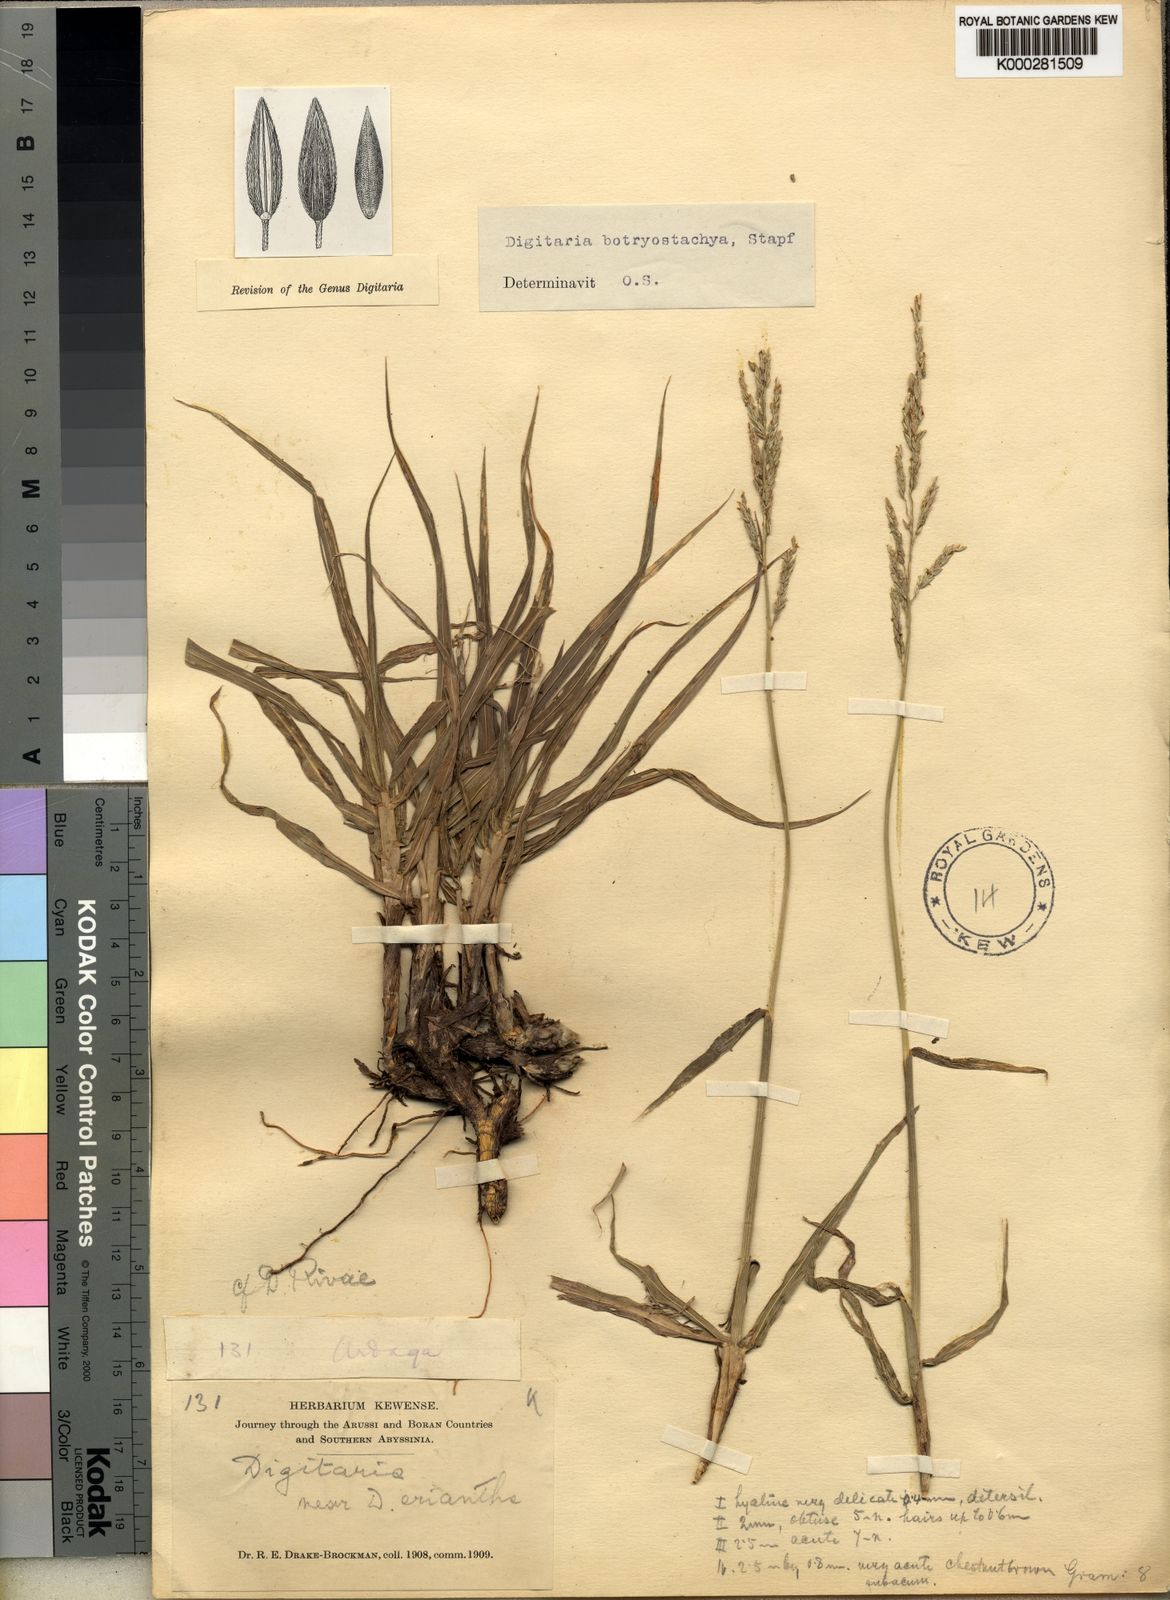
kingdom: Plantae
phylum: Tracheophyta
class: Liliopsida
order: Poales
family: Poaceae
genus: Digitaria
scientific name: Digitaria rivae
